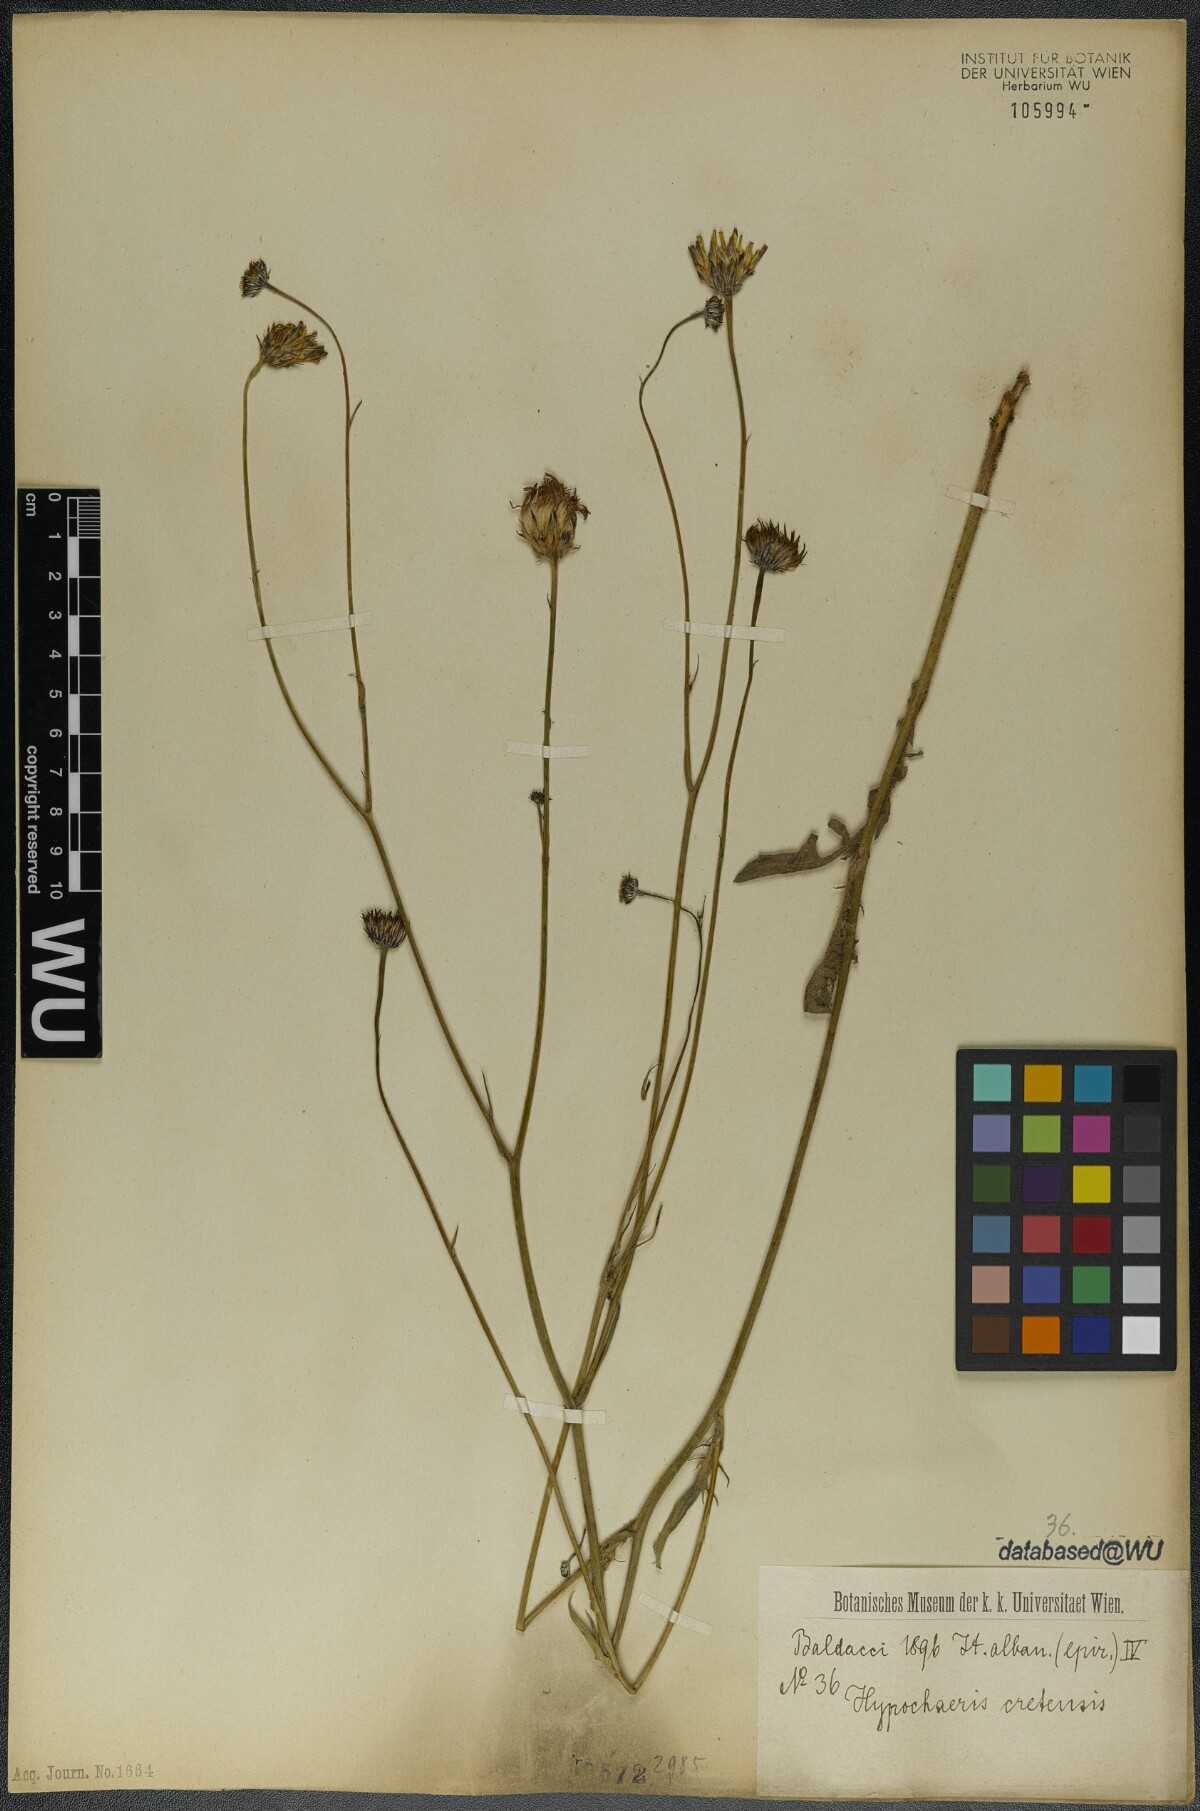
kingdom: Plantae
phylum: Tracheophyta
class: Magnoliopsida
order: Asterales
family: Asteraceae
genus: Hypochaeris
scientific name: Hypochaeris cretensis
